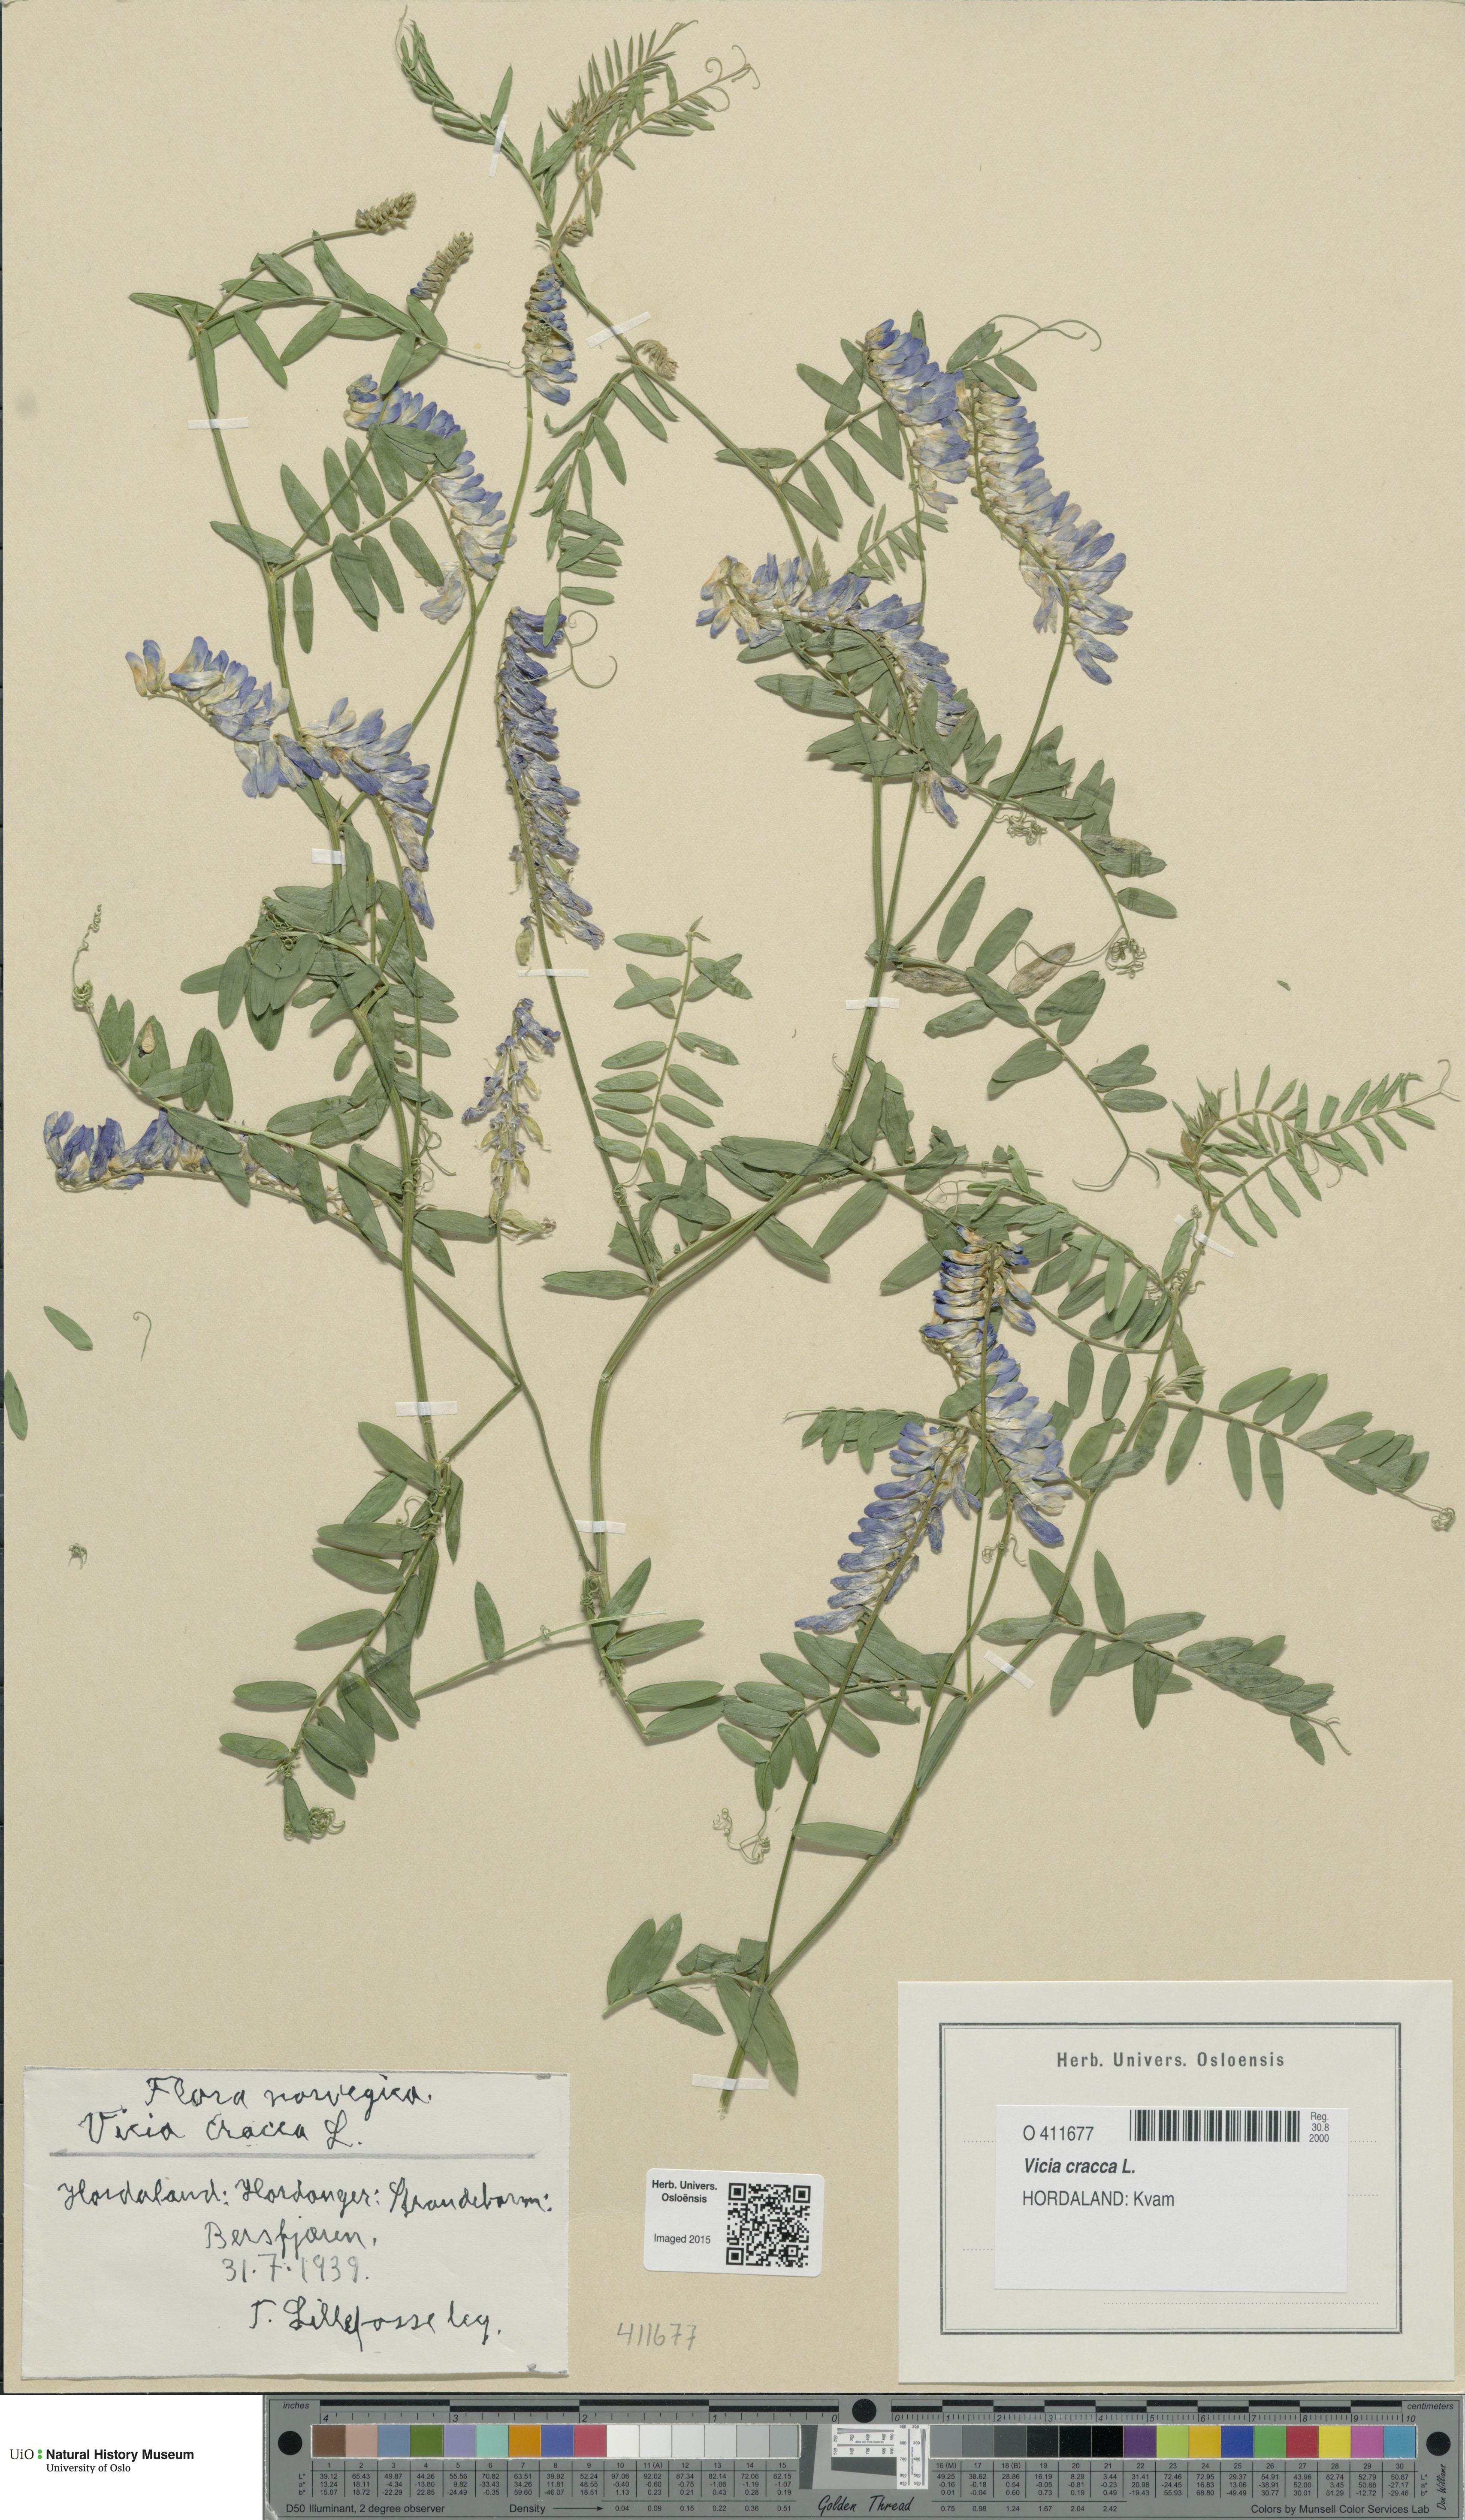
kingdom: Plantae
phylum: Tracheophyta
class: Magnoliopsida
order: Fabales
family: Fabaceae
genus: Vicia
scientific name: Vicia cracca
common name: Bird vetch
